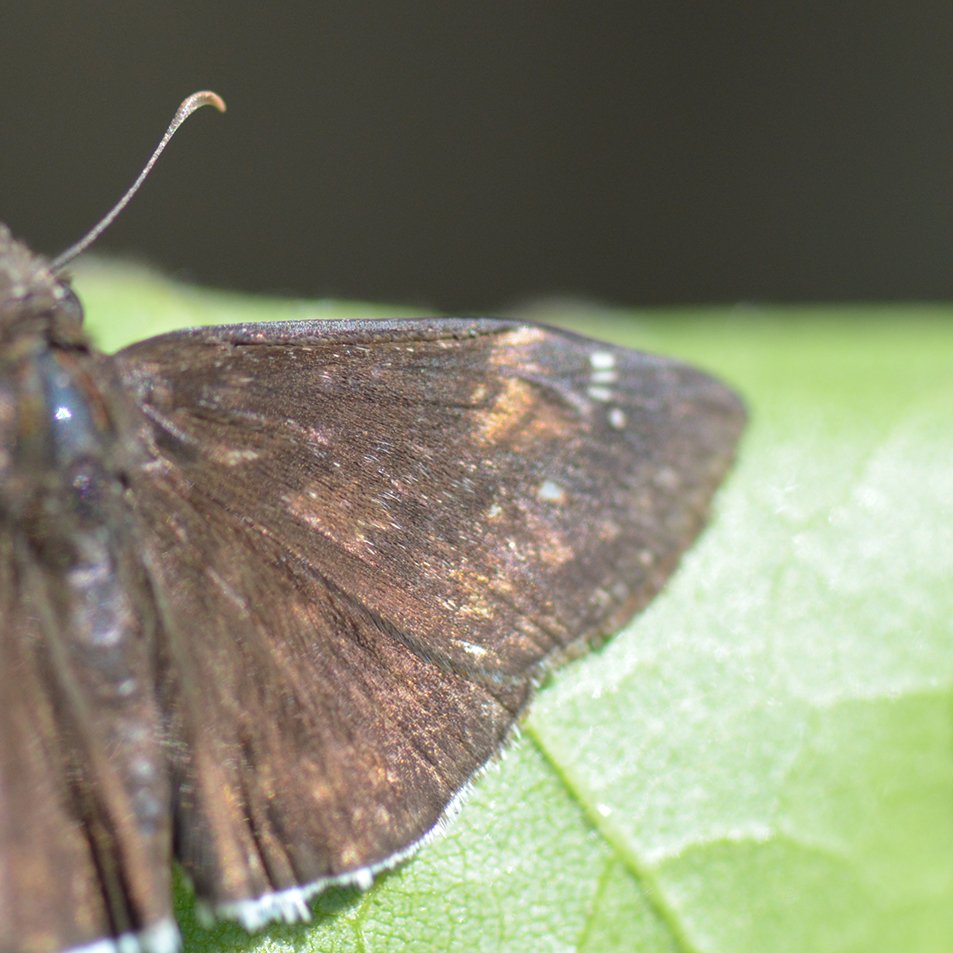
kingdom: Animalia
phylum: Arthropoda
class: Insecta
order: Lepidoptera
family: Hesperiidae
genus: Gesta
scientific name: Gesta
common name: Juvenal's Duskywing
